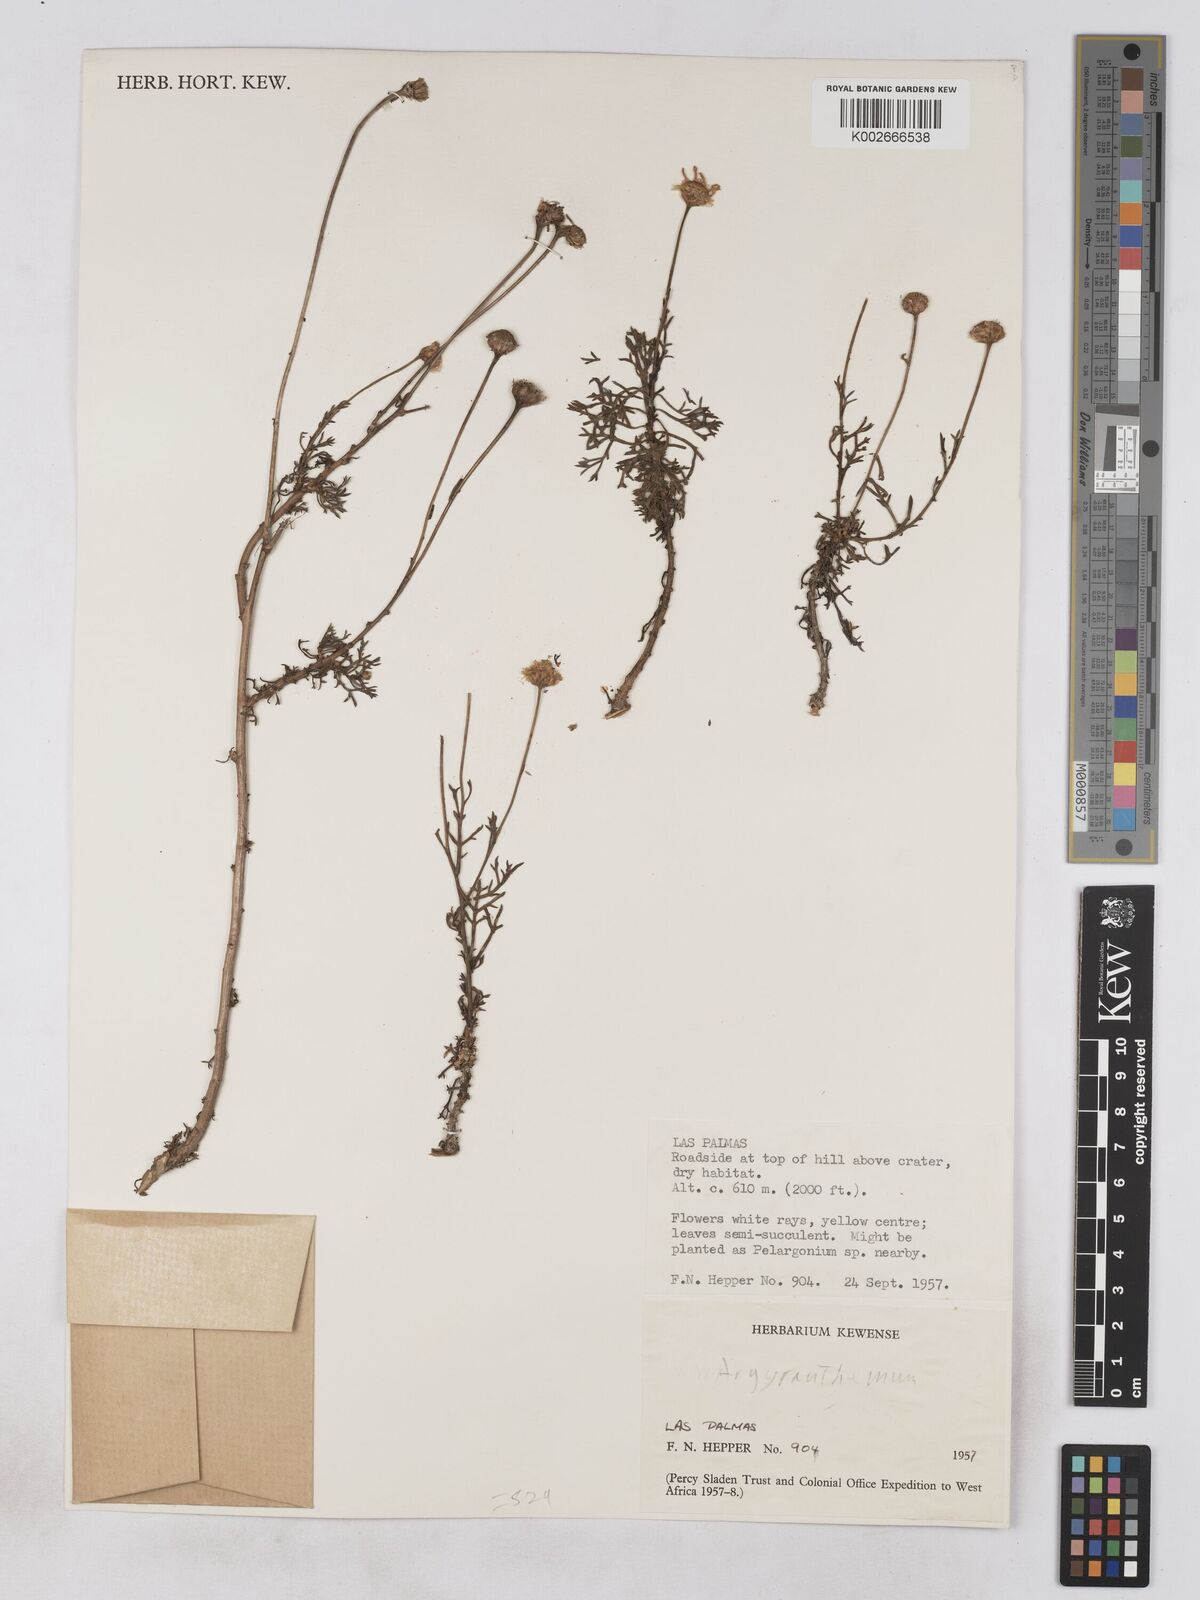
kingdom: Plantae
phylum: Tracheophyta
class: Magnoliopsida
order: Asterales
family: Asteraceae
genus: Argyranthemum
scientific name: Argyranthemum
